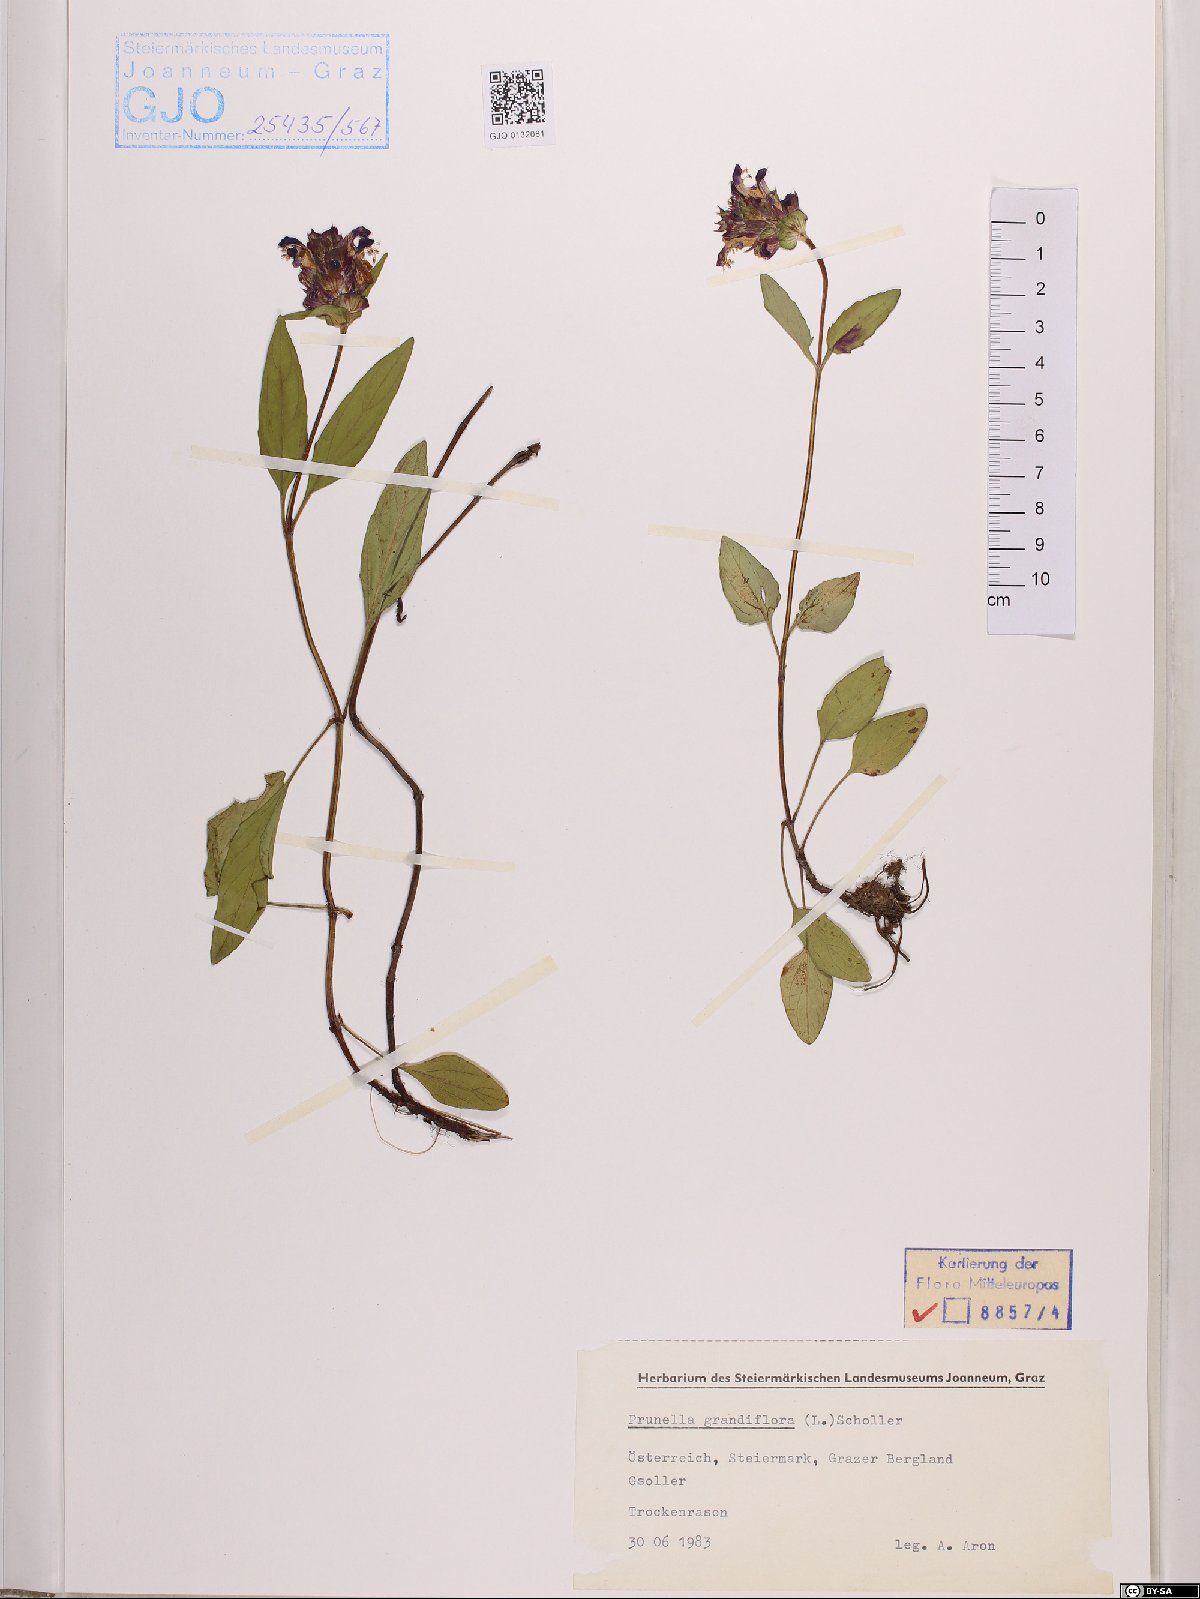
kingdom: Plantae
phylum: Tracheophyta
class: Magnoliopsida
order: Lamiales
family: Lamiaceae
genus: Prunella
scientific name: Prunella grandiflora
